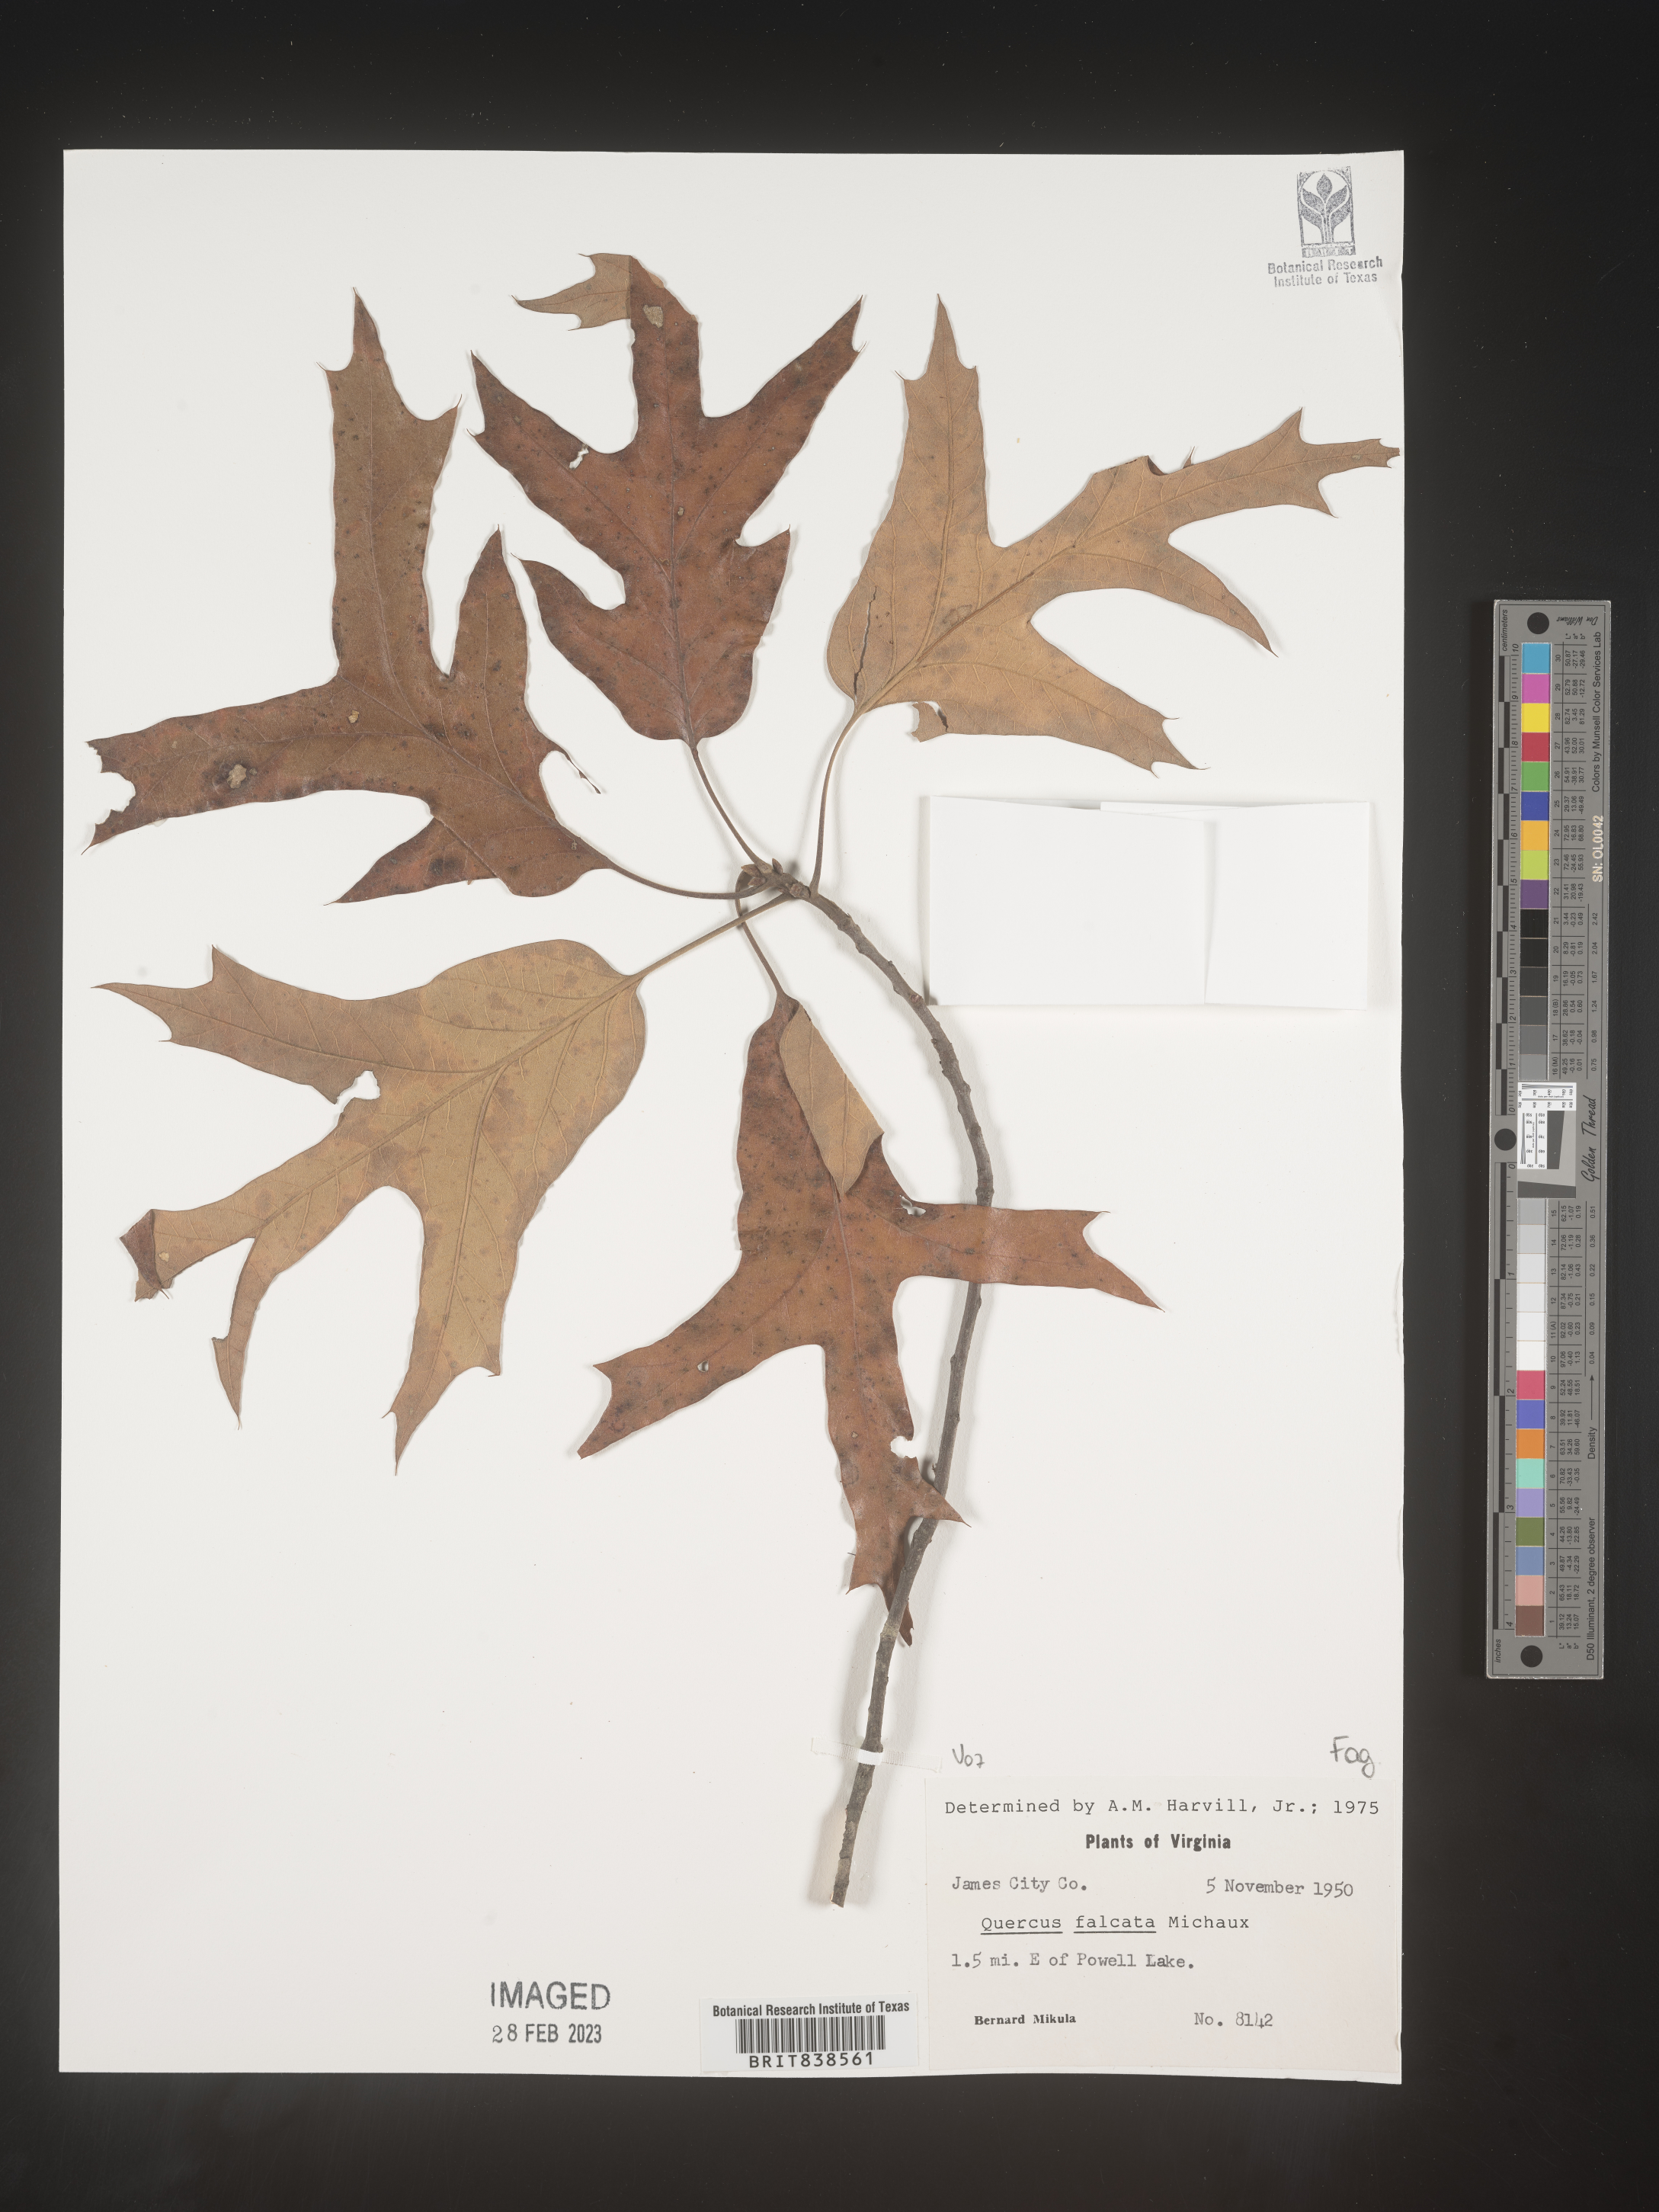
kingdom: Plantae
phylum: Tracheophyta
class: Magnoliopsida
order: Fagales
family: Fagaceae
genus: Quercus
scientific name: Quercus falcata
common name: Southern red oak
